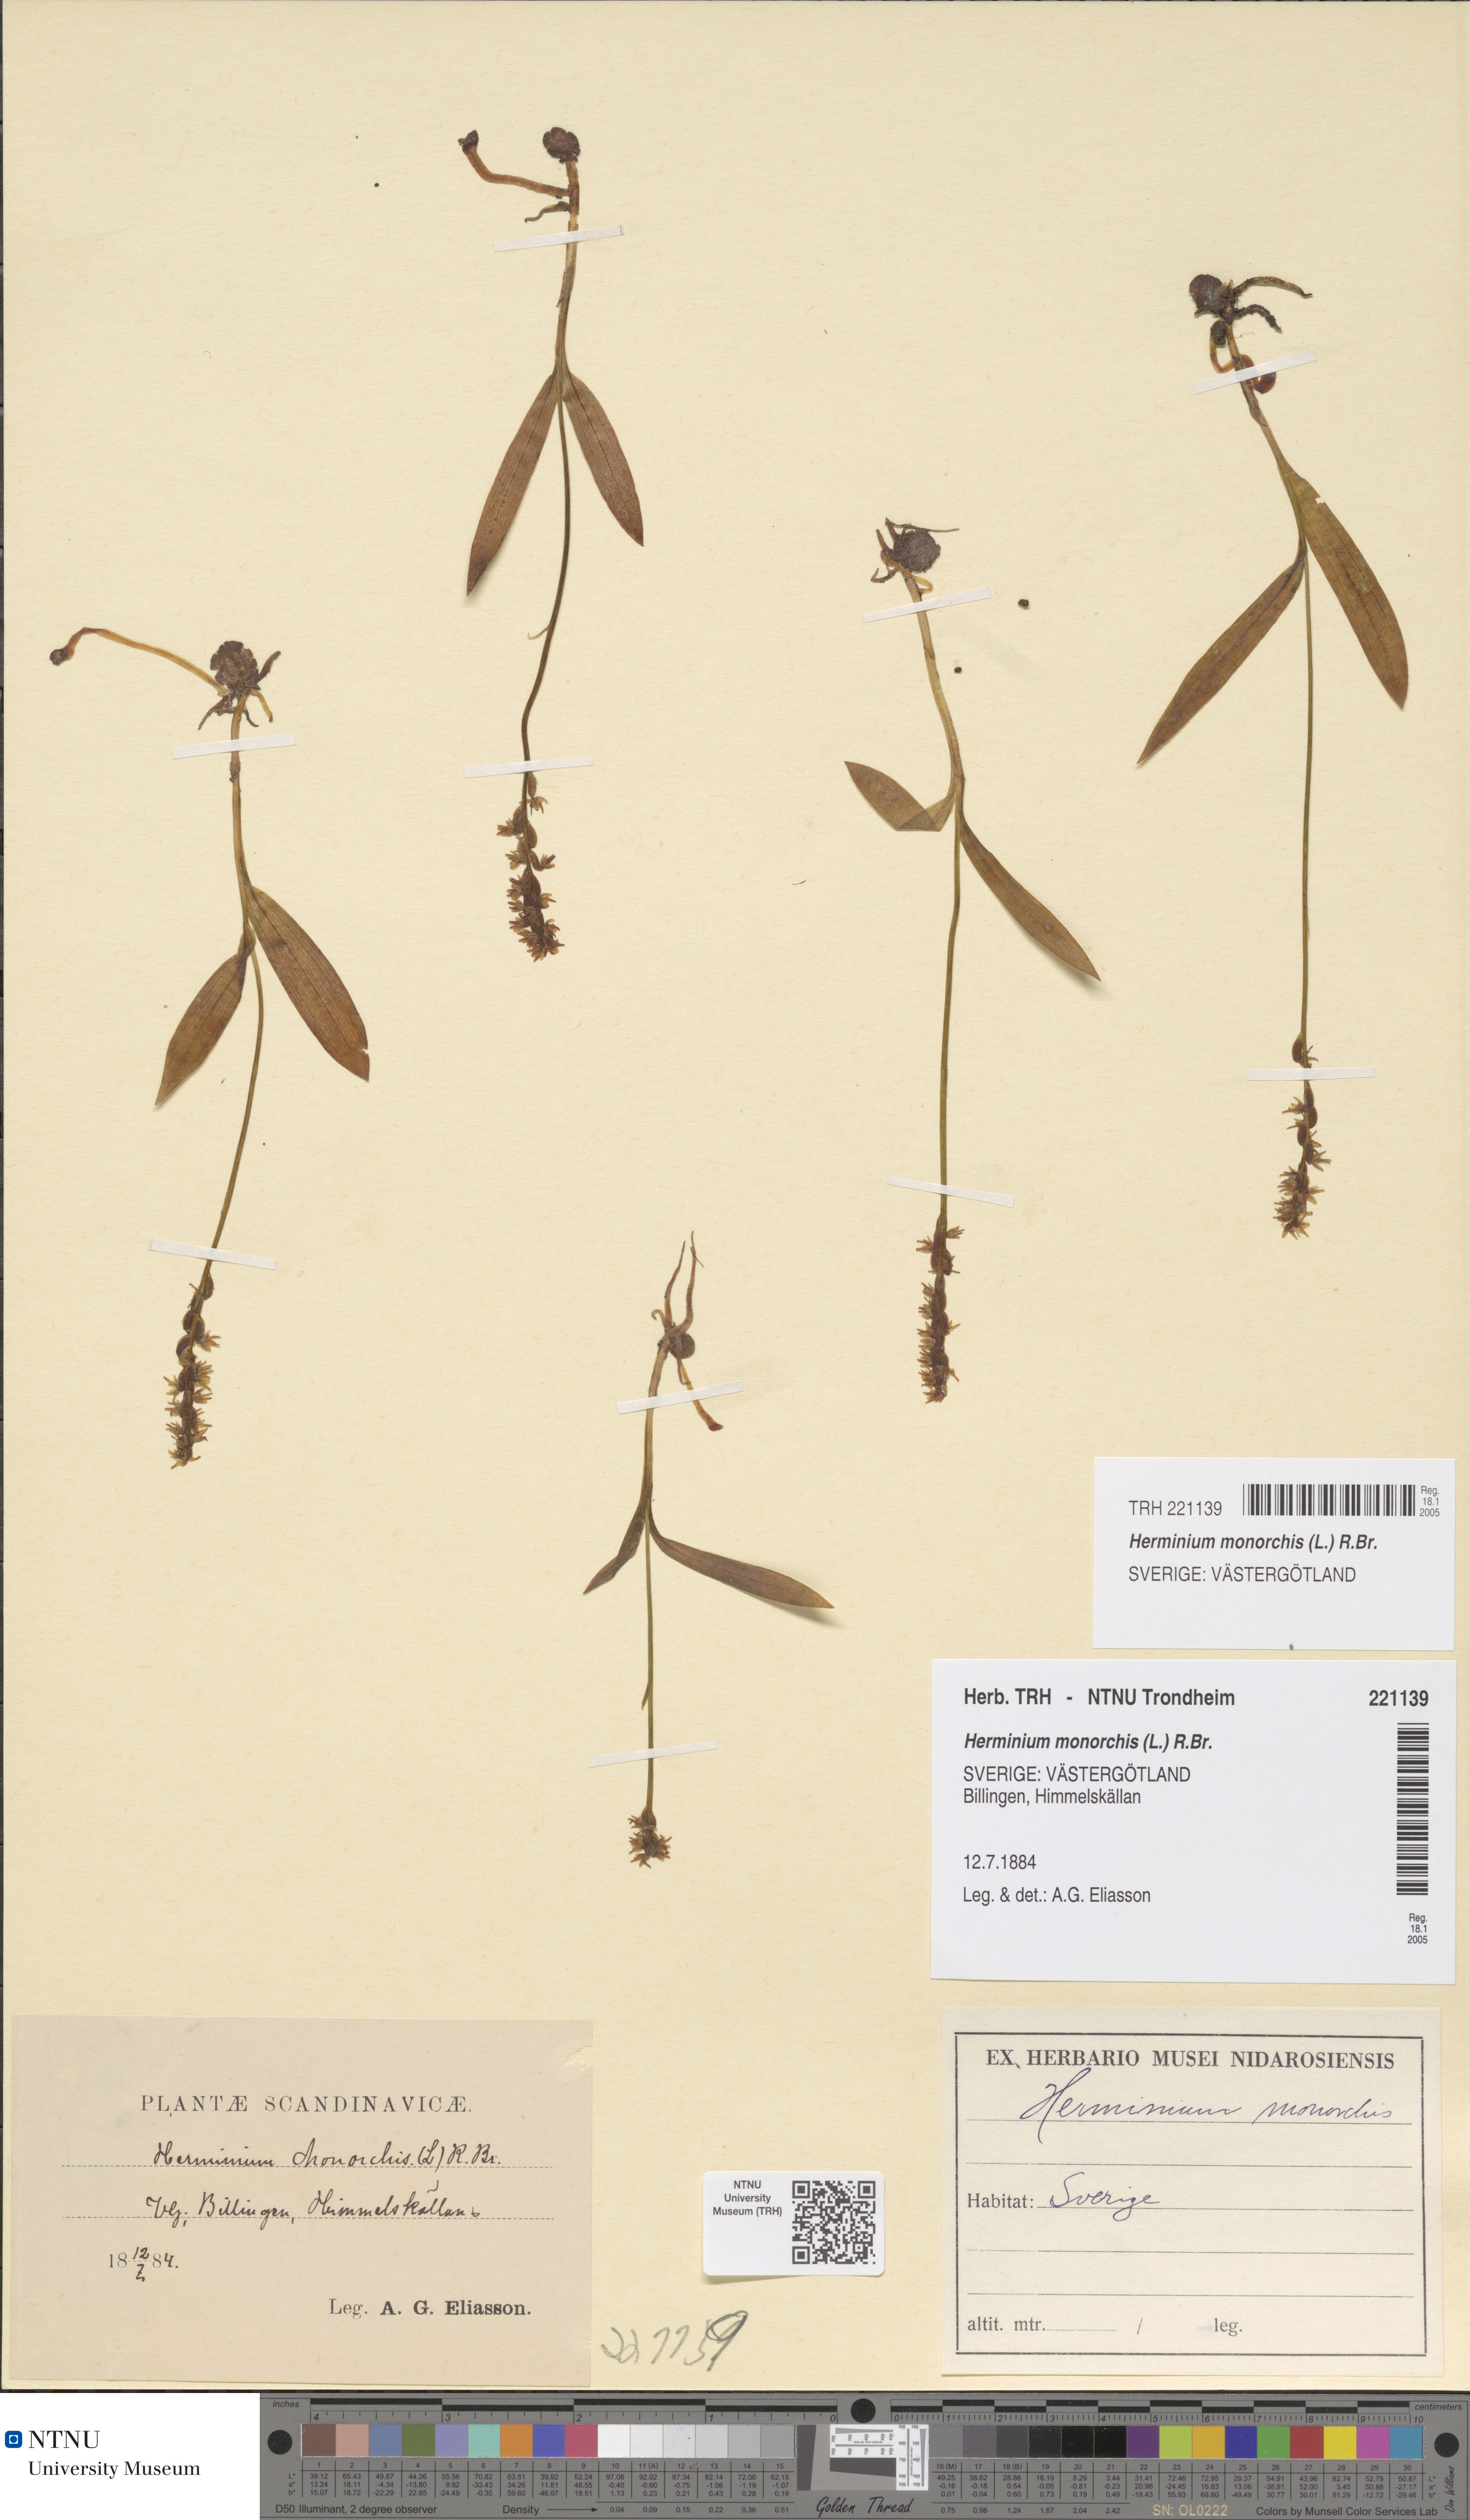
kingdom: Plantae
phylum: Tracheophyta
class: Liliopsida
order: Asparagales
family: Orchidaceae
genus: Herminium
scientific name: Herminium monorchis
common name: Musk orchid
